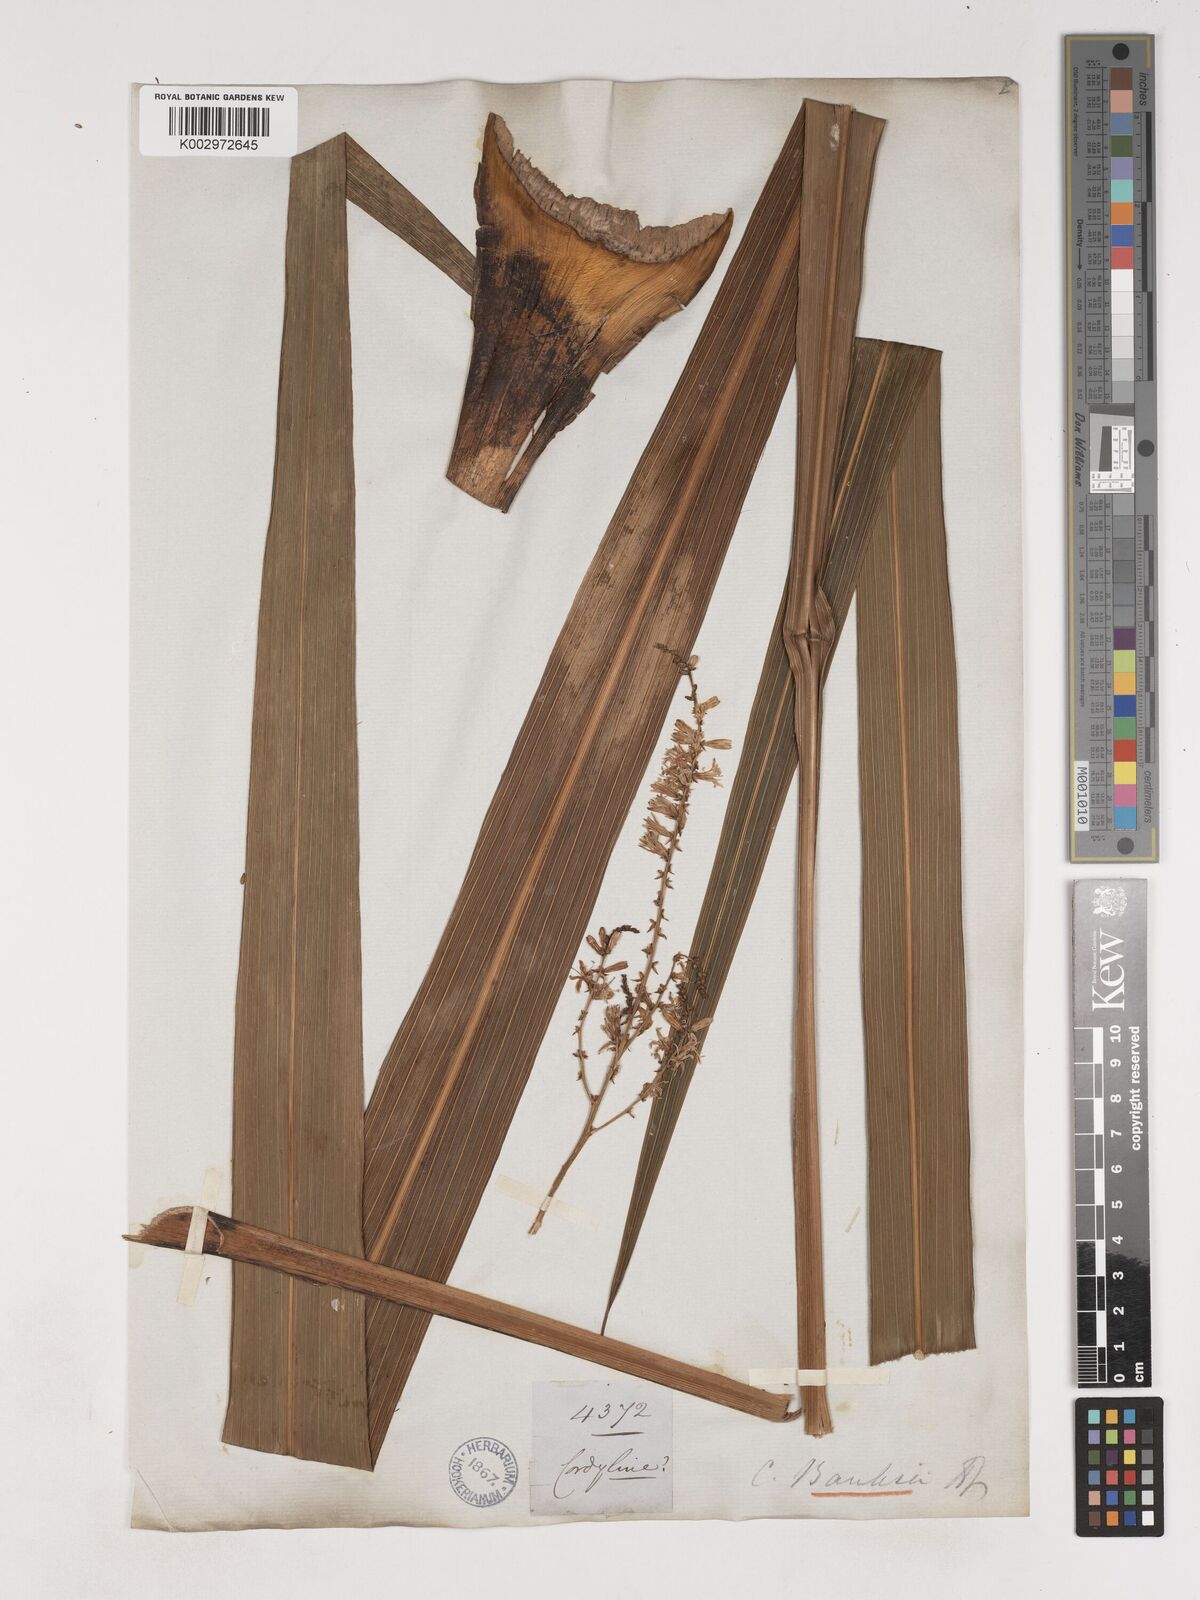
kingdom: Plantae
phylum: Tracheophyta
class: Liliopsida
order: Asparagales
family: Asparagaceae
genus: Cordyline
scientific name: Cordyline banksii
